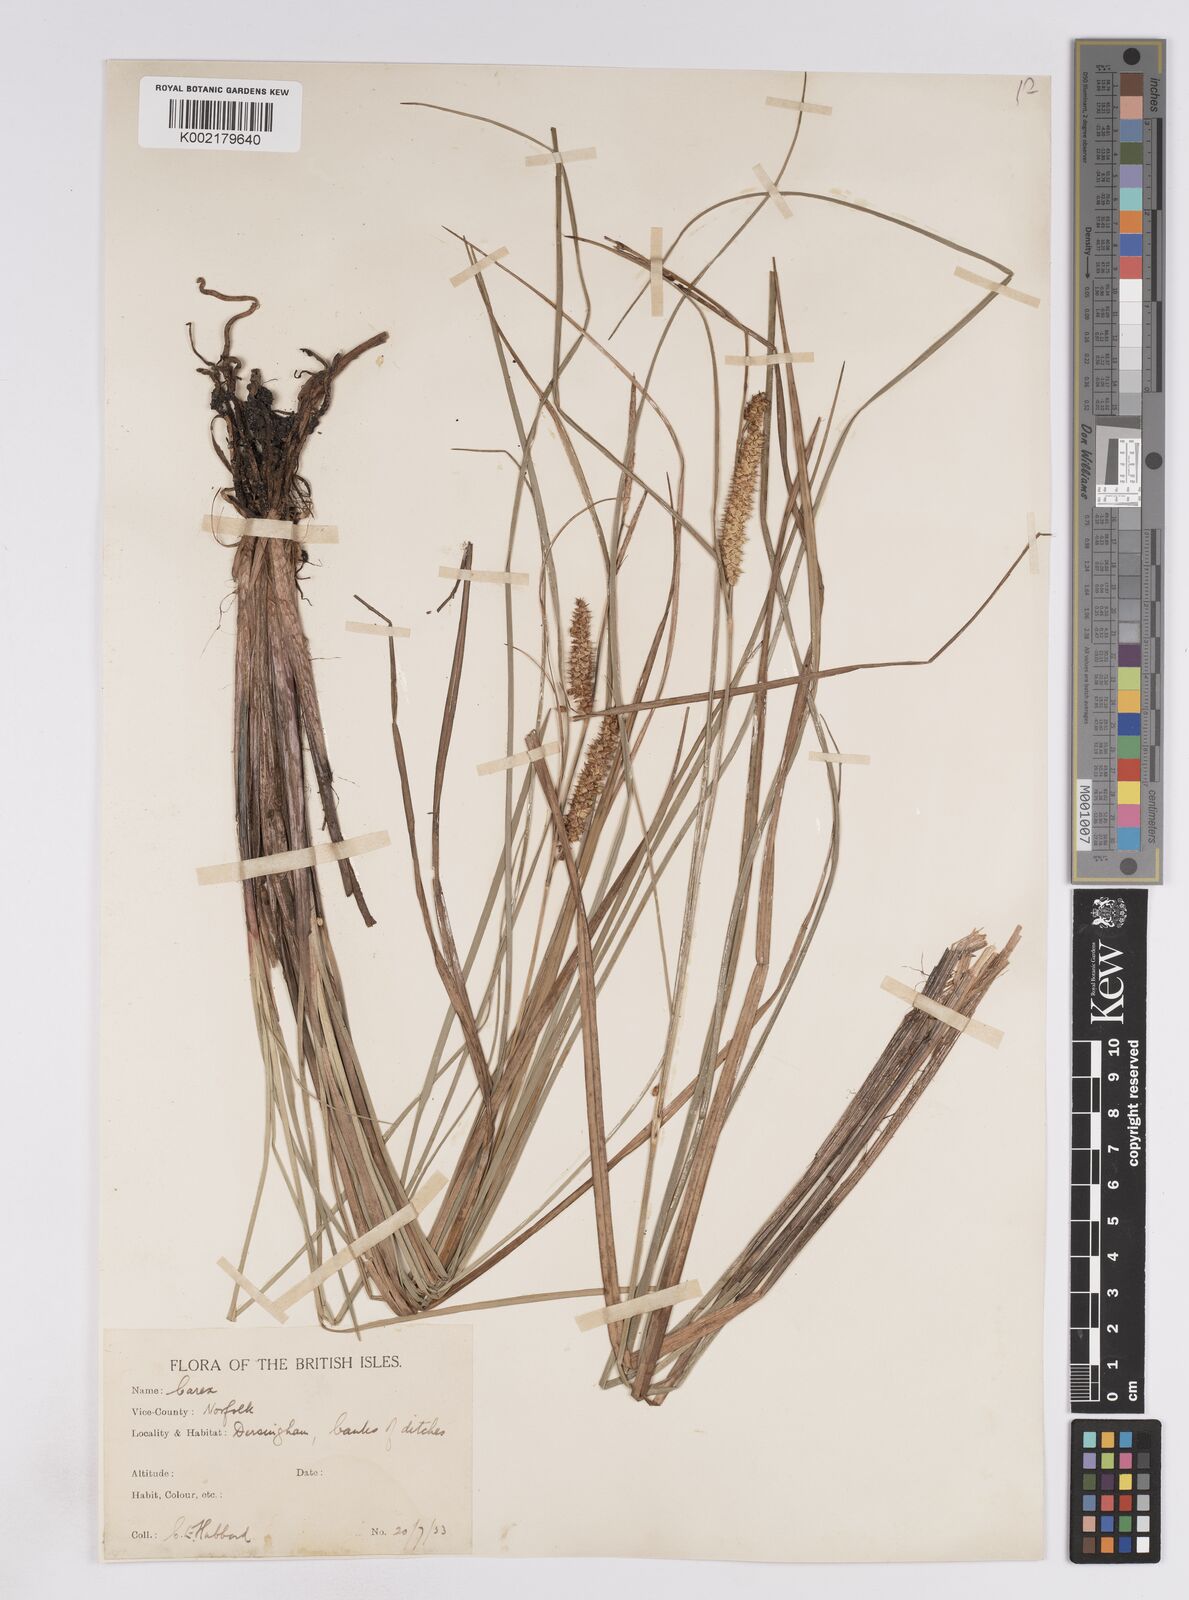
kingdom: Plantae
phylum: Tracheophyta
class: Liliopsida
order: Poales
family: Cyperaceae
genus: Carex
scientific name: Carex rostrata
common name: Bottle sedge
